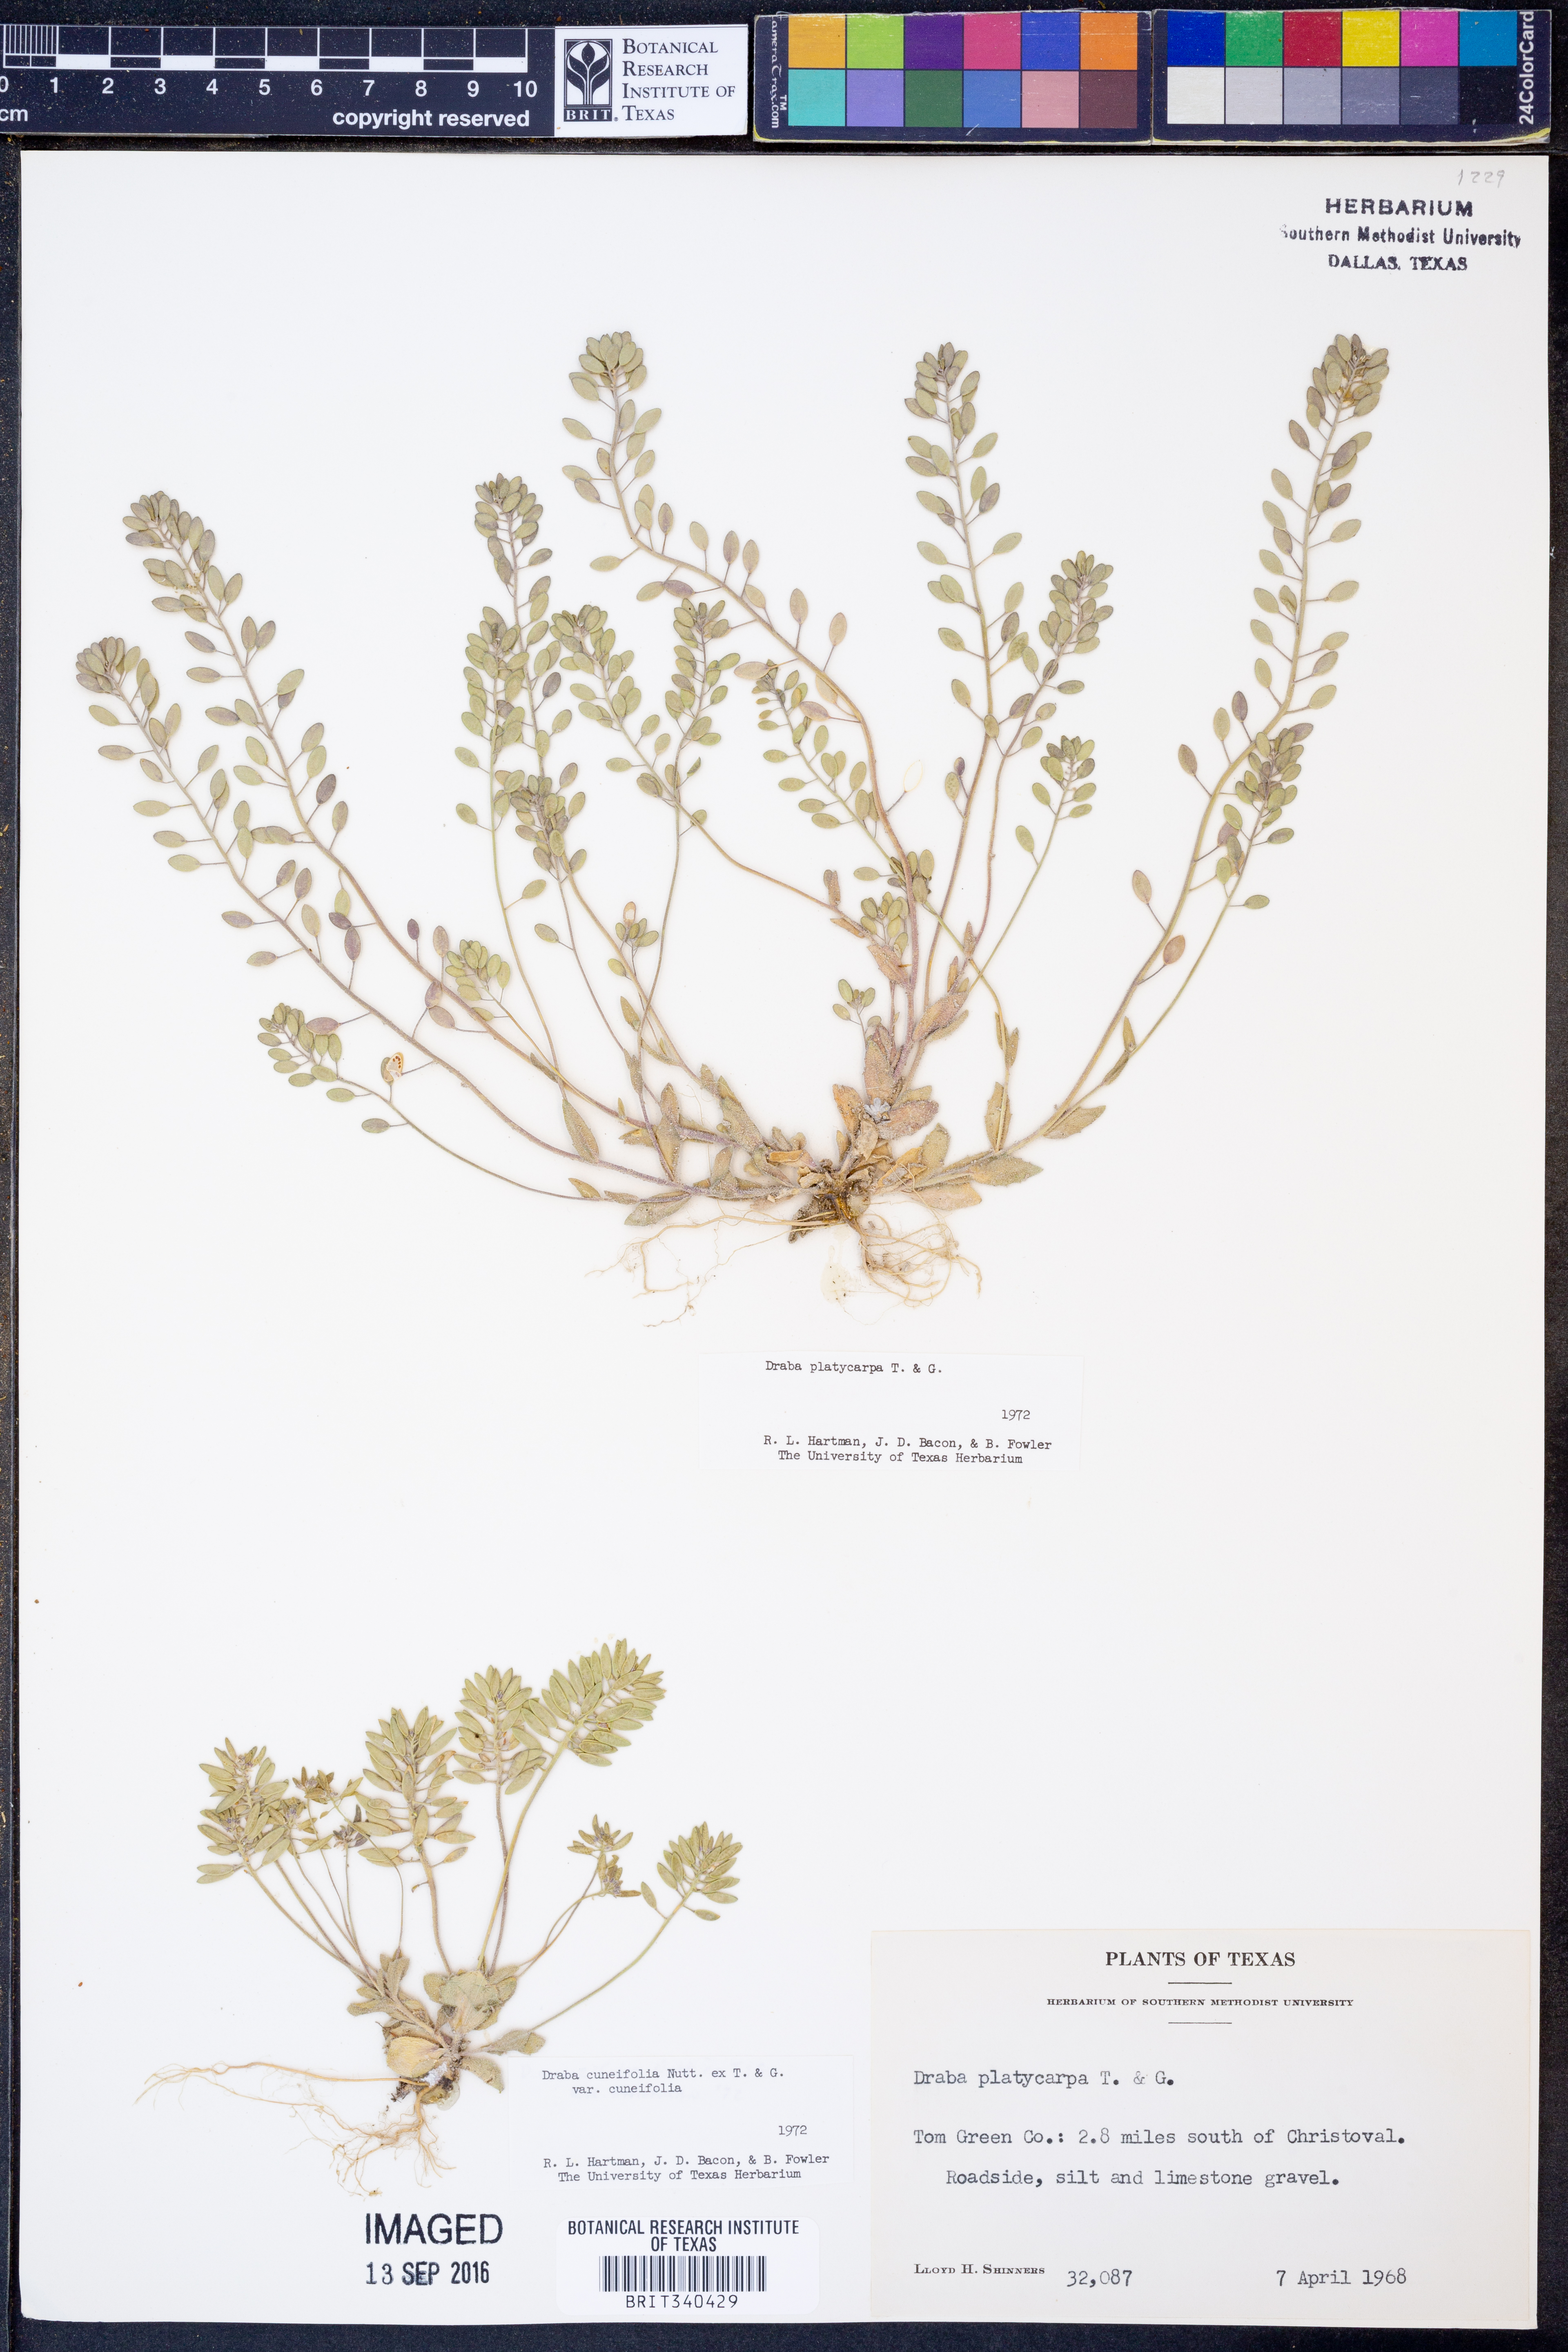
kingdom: Plantae
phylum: Tracheophyta
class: Magnoliopsida
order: Brassicales
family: Brassicaceae
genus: Tomostima
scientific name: Tomostima platycarpa
